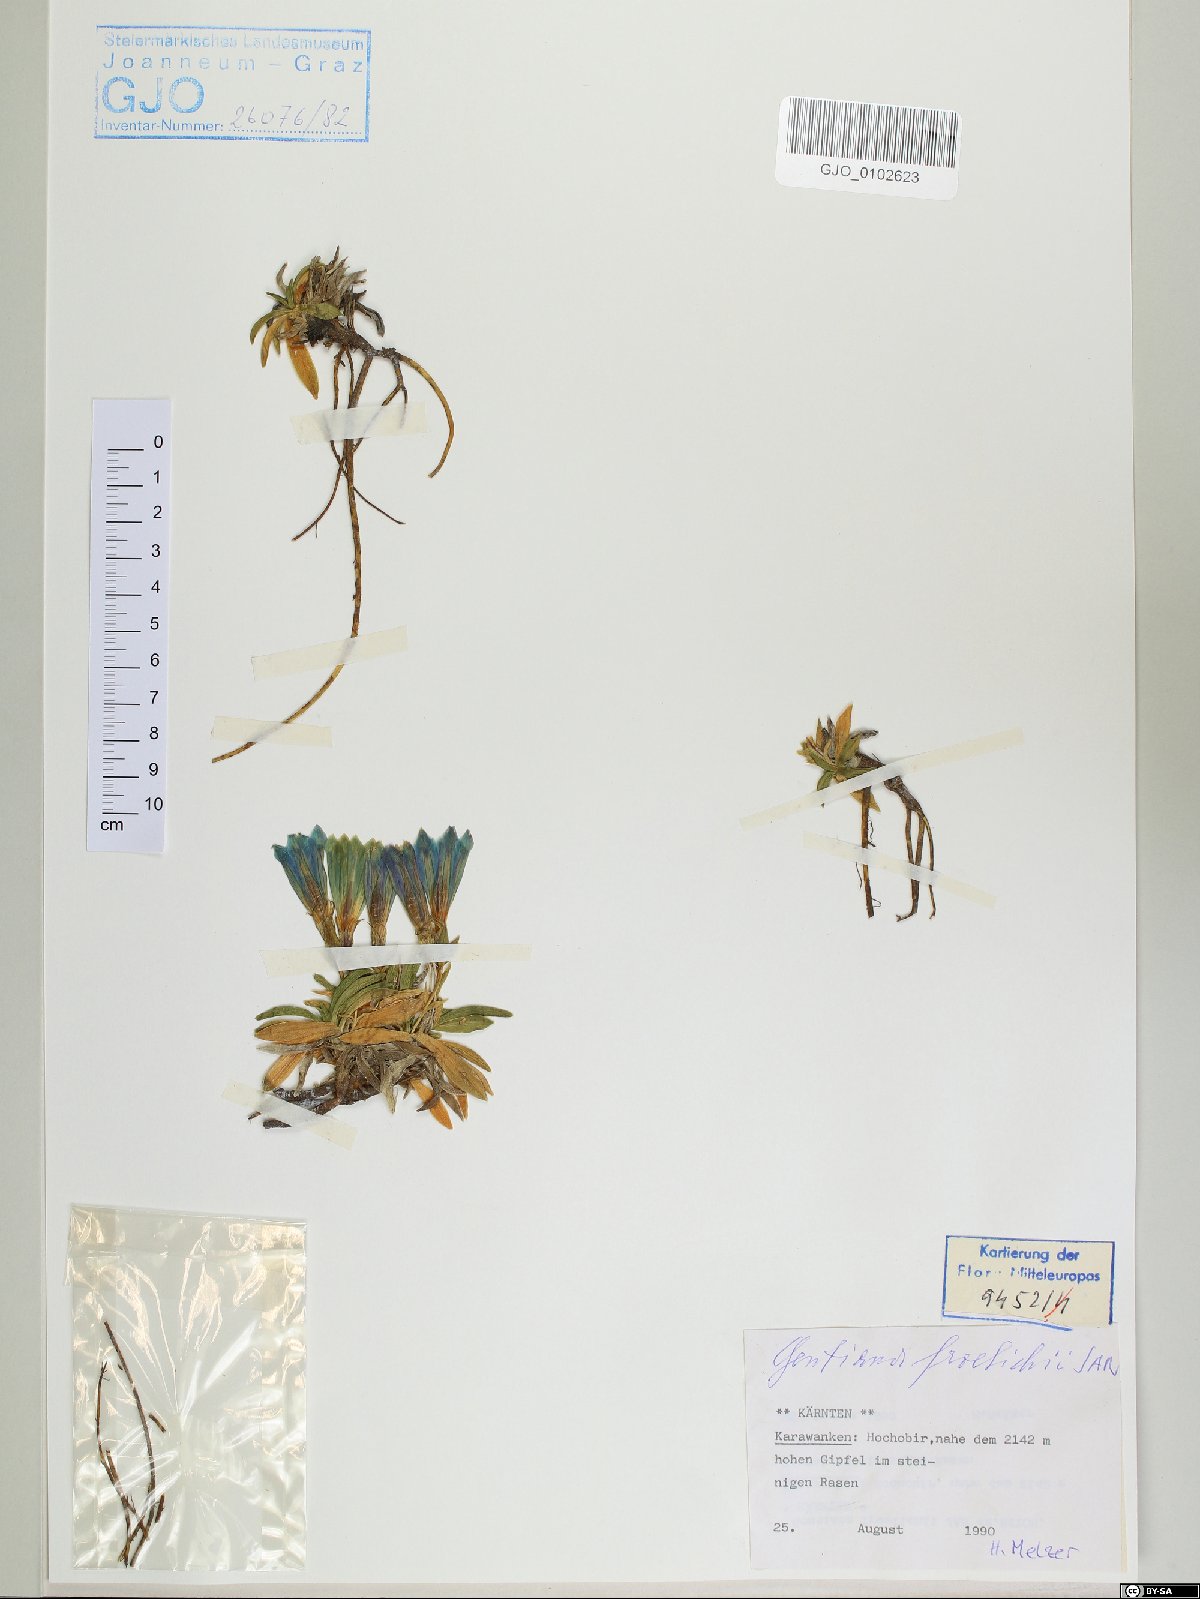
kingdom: Plantae
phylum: Tracheophyta
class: Magnoliopsida
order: Gentianales
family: Gentianaceae
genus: Gentiana
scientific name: Gentiana froelichii
